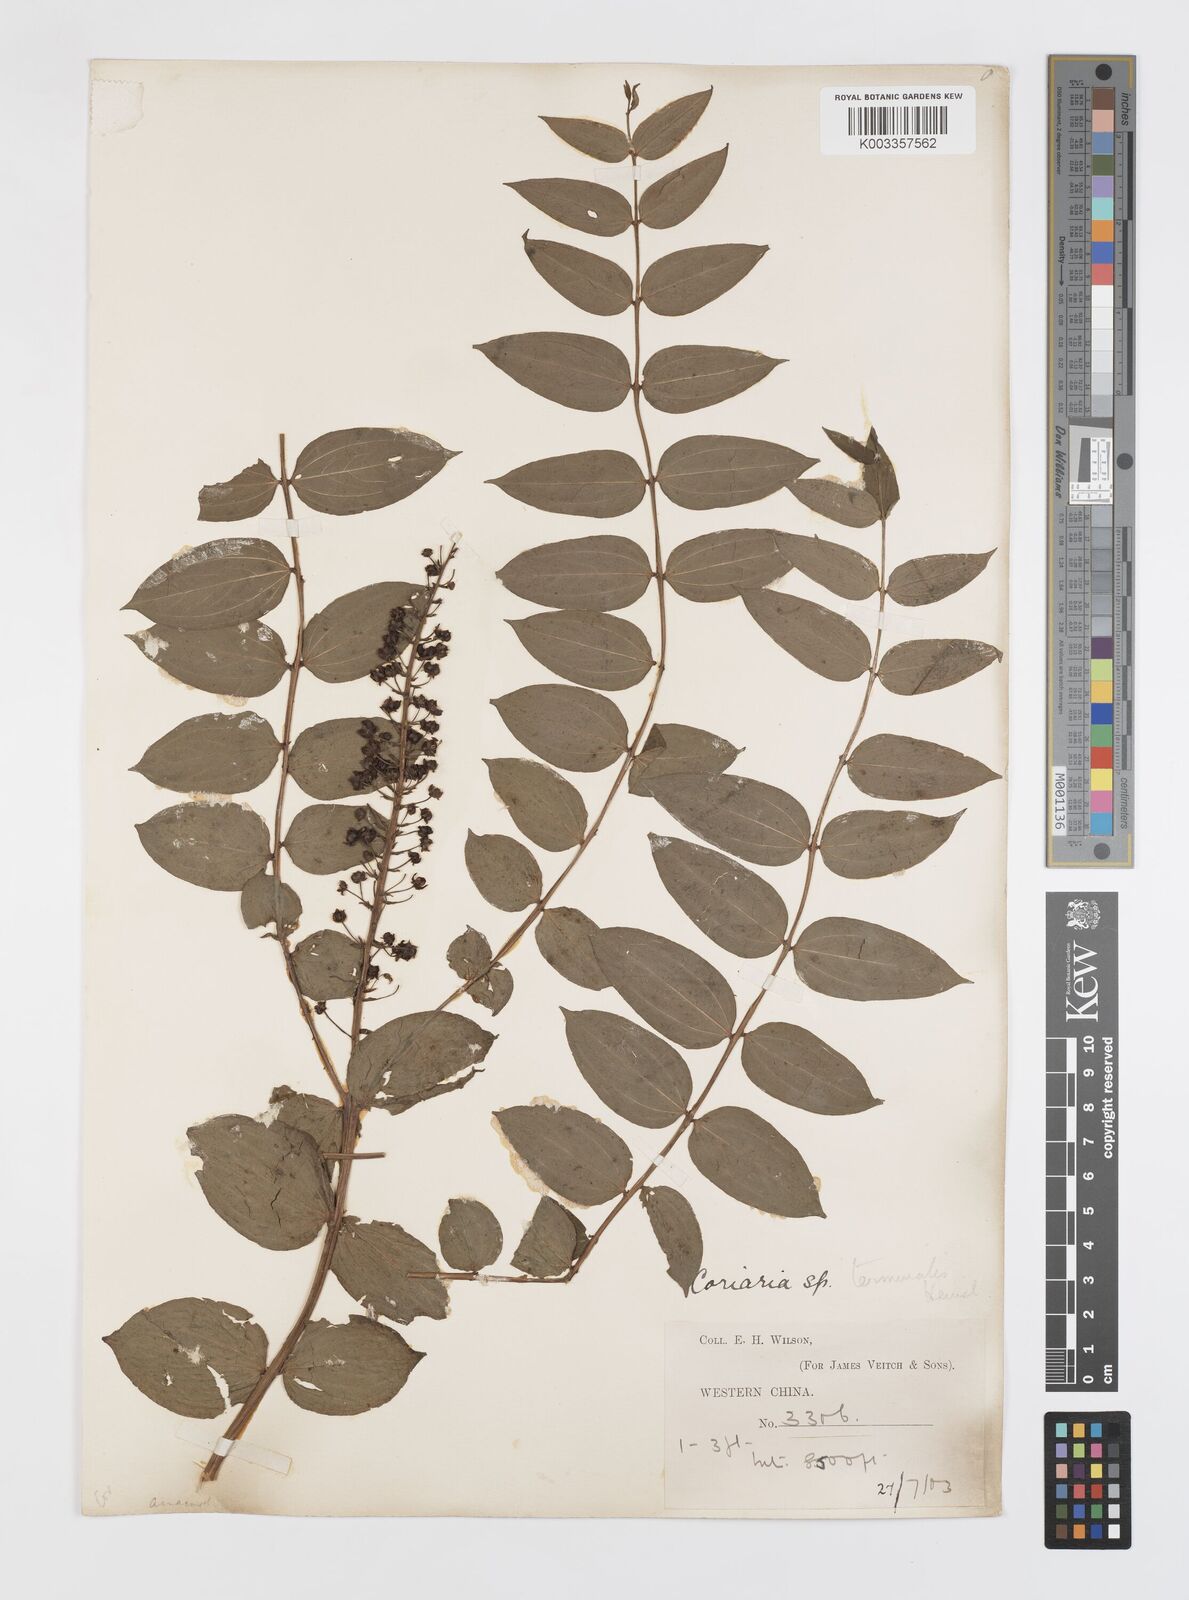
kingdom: Plantae
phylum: Tracheophyta
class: Magnoliopsida
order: Cucurbitales
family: Coriariaceae
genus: Coriaria
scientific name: Coriaria terminalis
